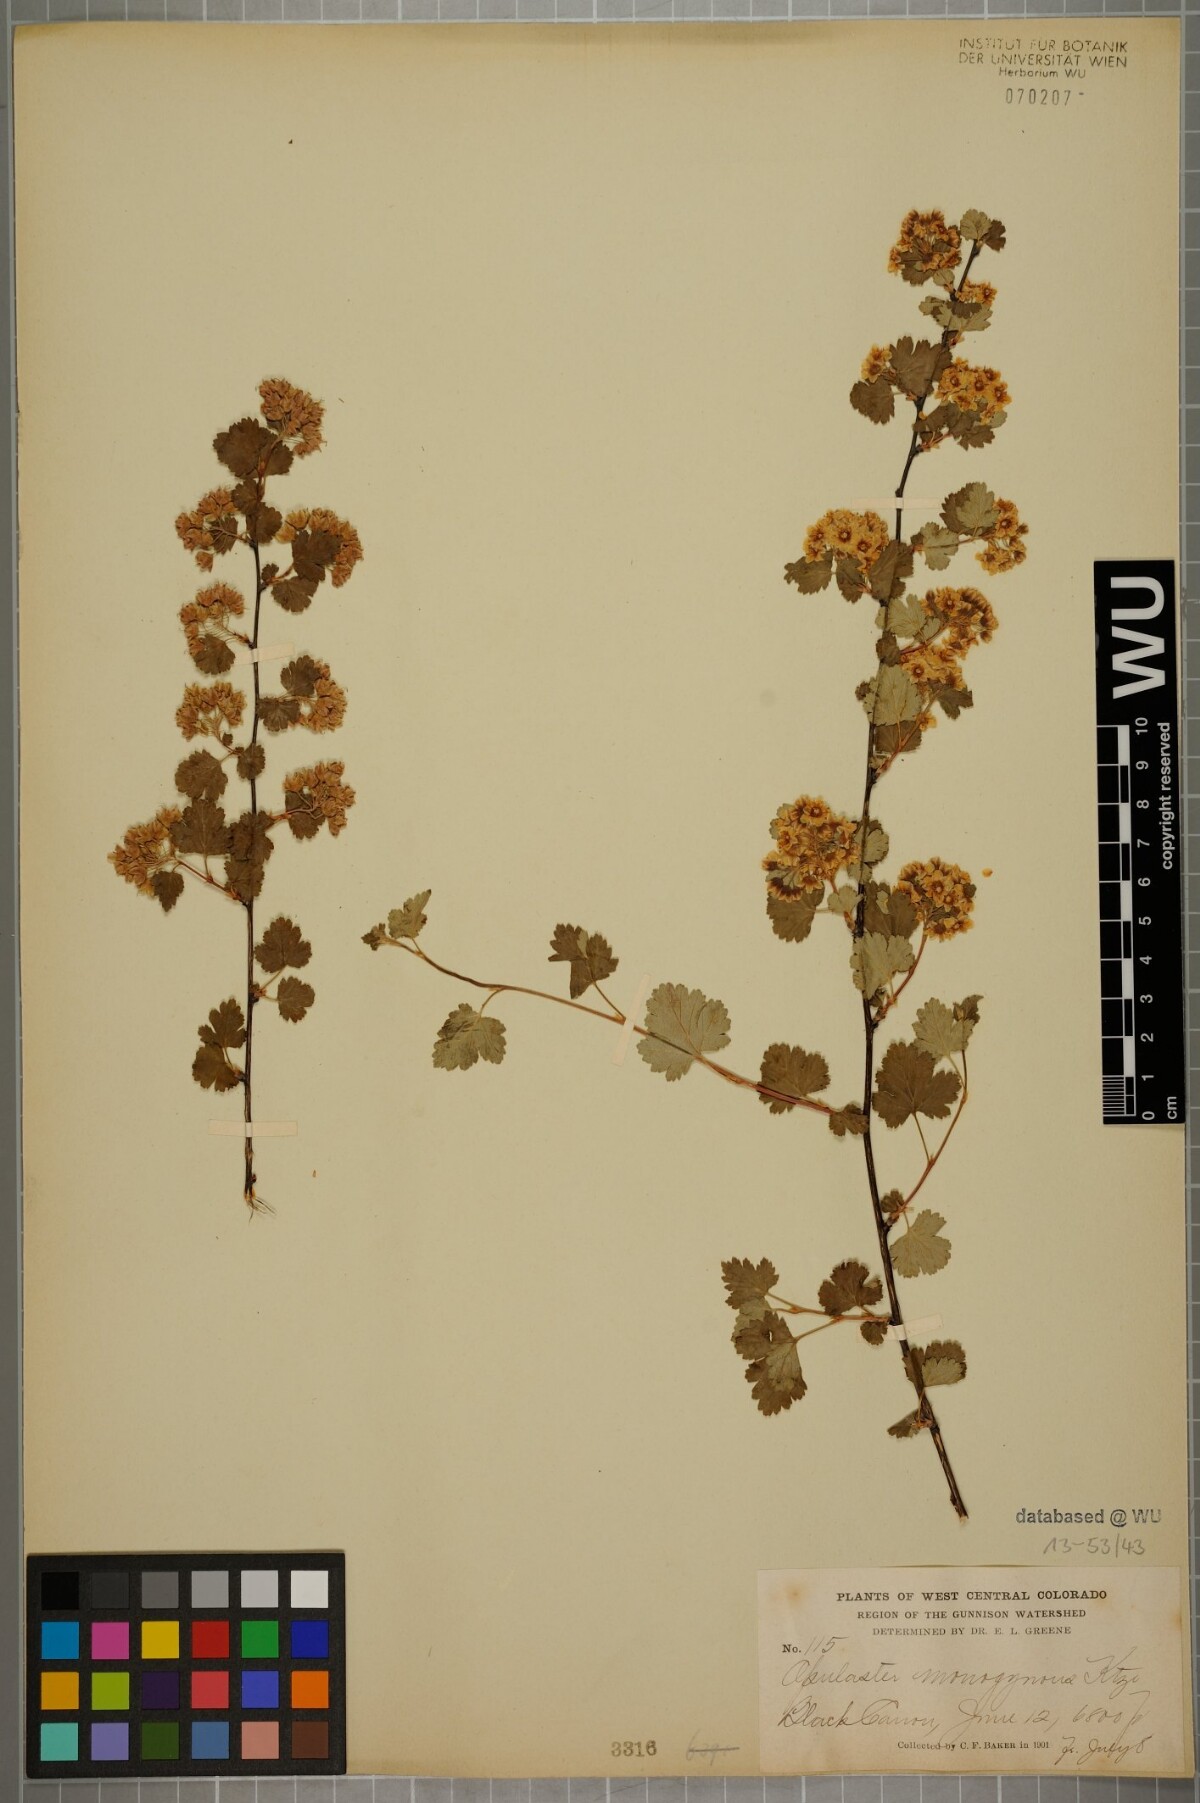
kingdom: Plantae
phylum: Tracheophyta
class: Magnoliopsida
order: Rosales
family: Rosaceae
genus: Physocarpus
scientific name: Physocarpus monogynus
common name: Mountain ninebark
